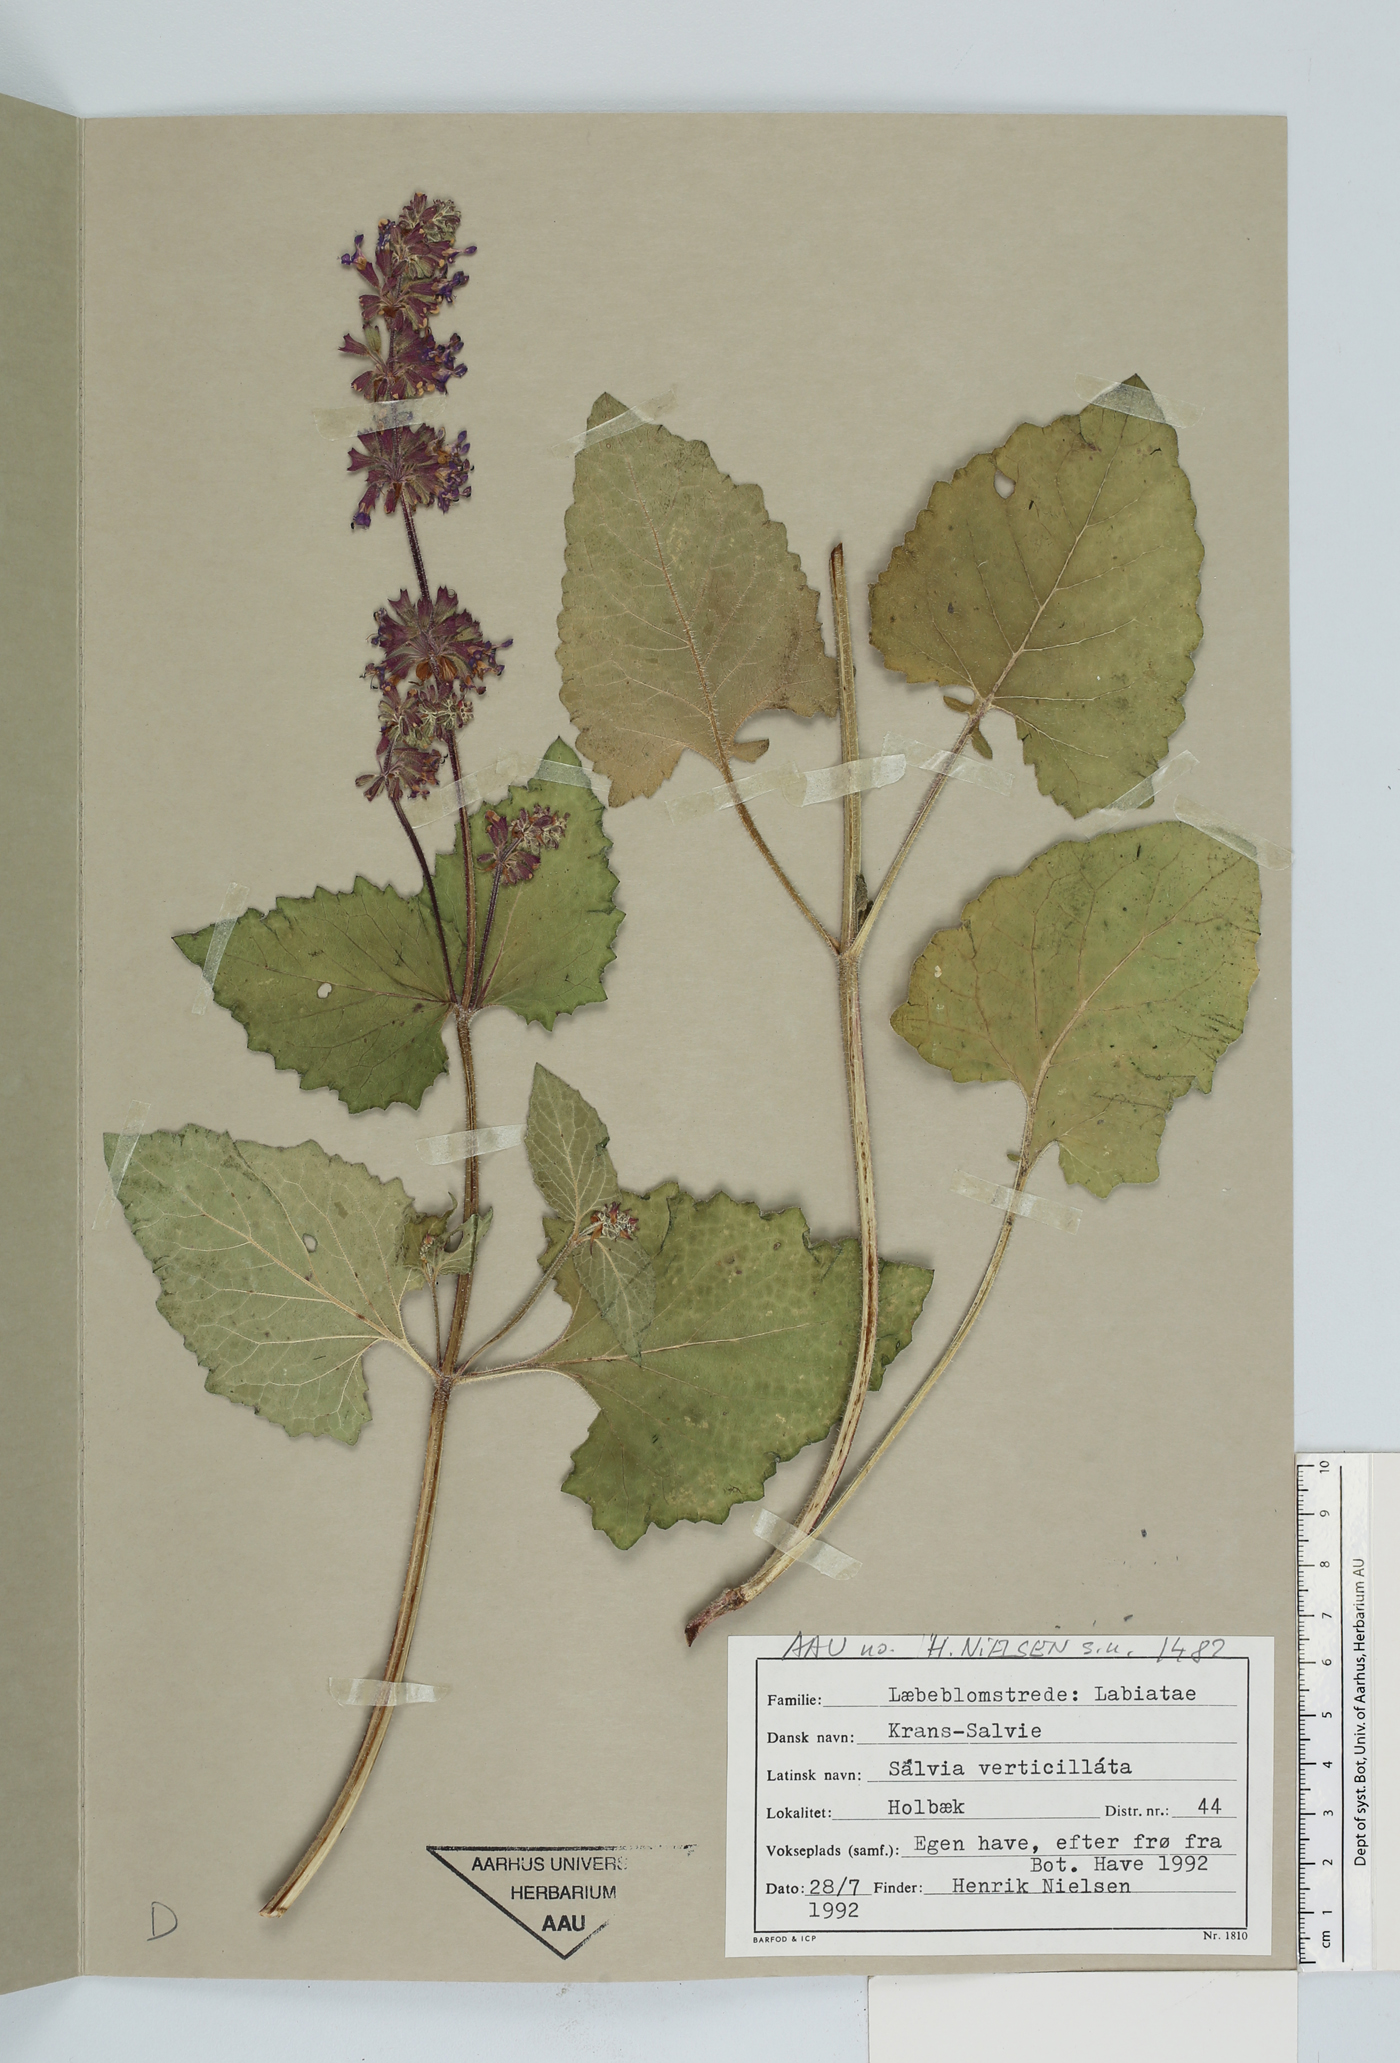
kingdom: Plantae
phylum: Tracheophyta
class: Magnoliopsida
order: Lamiales
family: Lamiaceae
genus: Salvia
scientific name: Salvia verticillata
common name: Whorled clary
